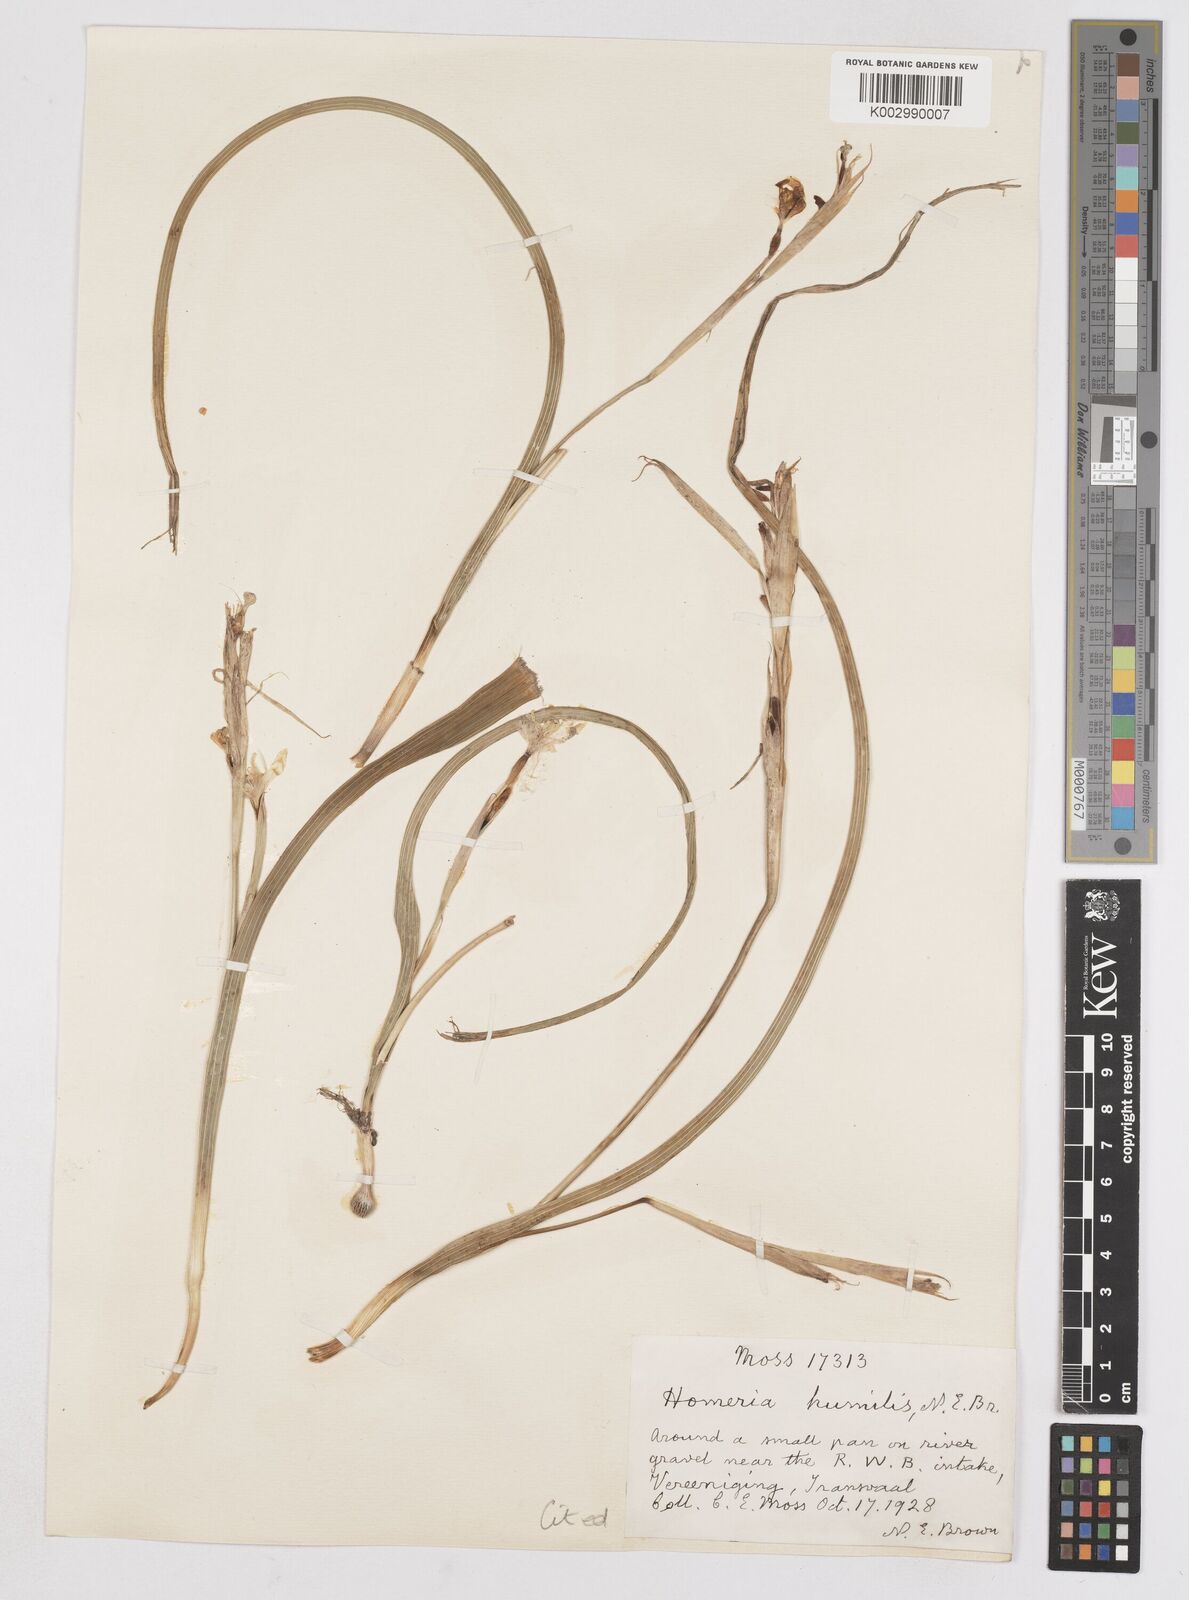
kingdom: Plantae
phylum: Tracheophyta
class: Liliopsida
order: Asparagales
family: Iridaceae
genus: Moraea
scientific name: Moraea pallida
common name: Yellow tulp
